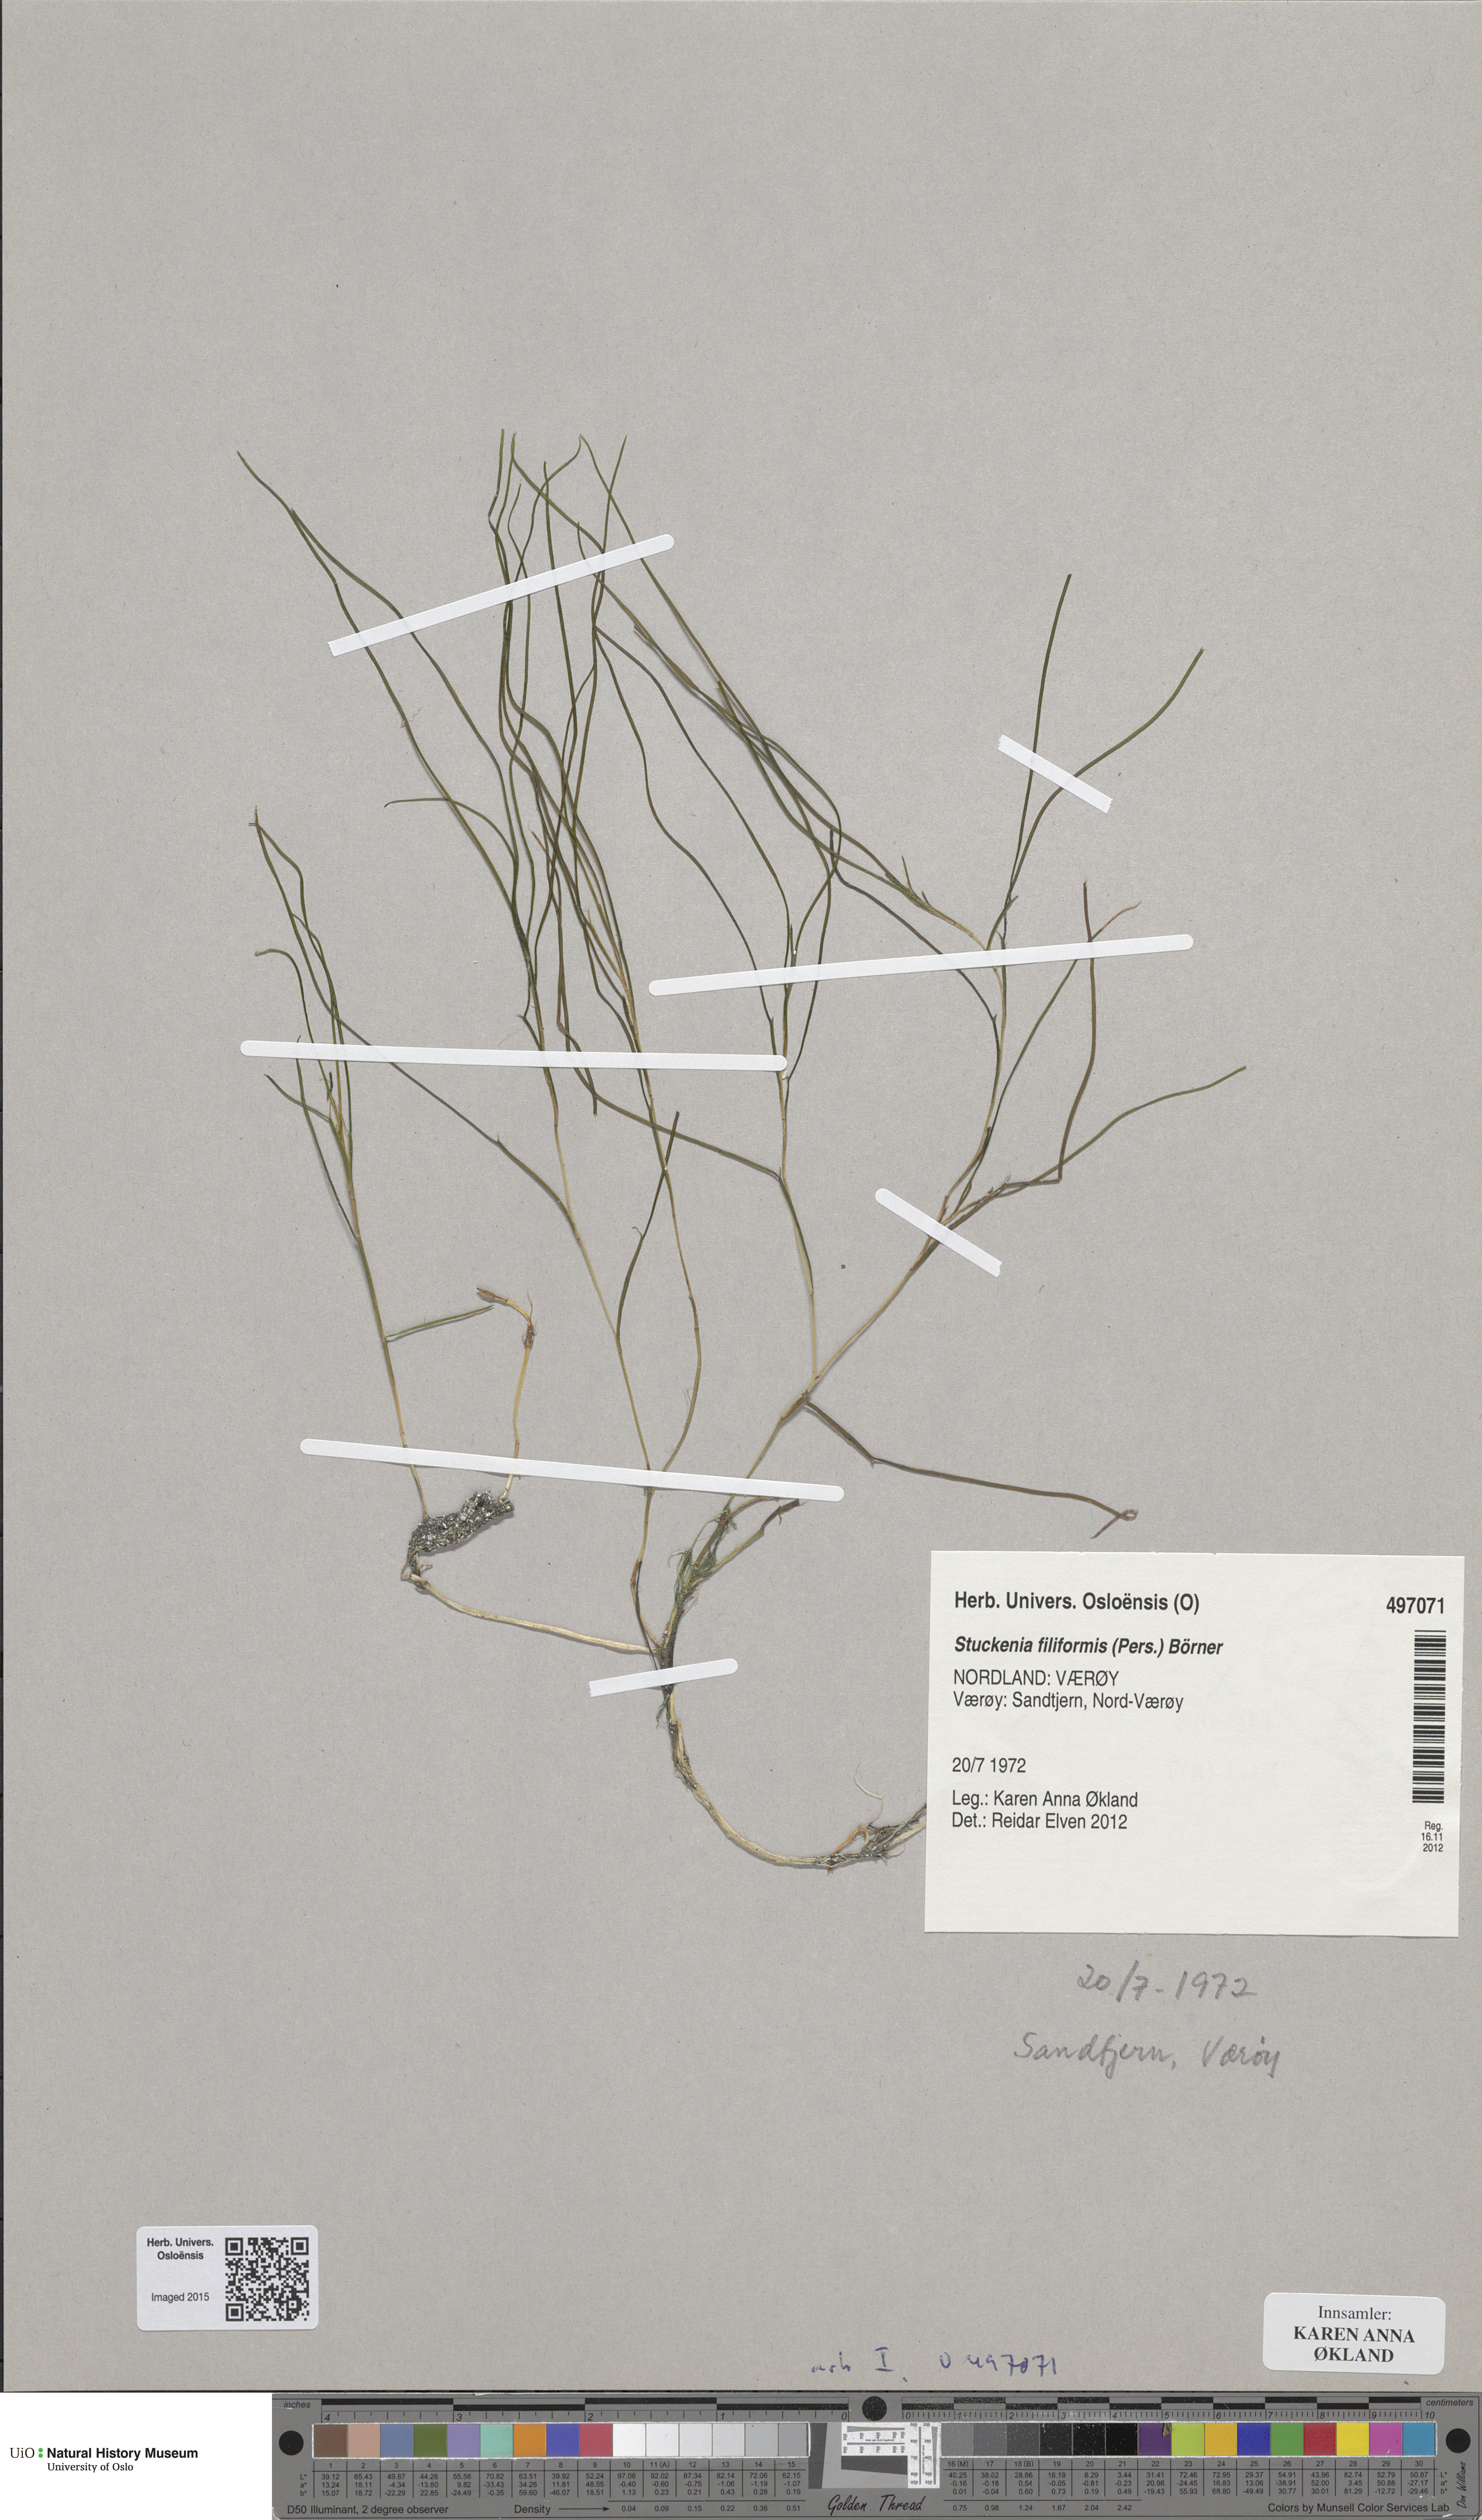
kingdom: Plantae
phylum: Tracheophyta
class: Liliopsida
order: Alismatales
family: Potamogetonaceae
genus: Stuckenia
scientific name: Stuckenia filiformis
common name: Alpine thread-leaved pondweed
